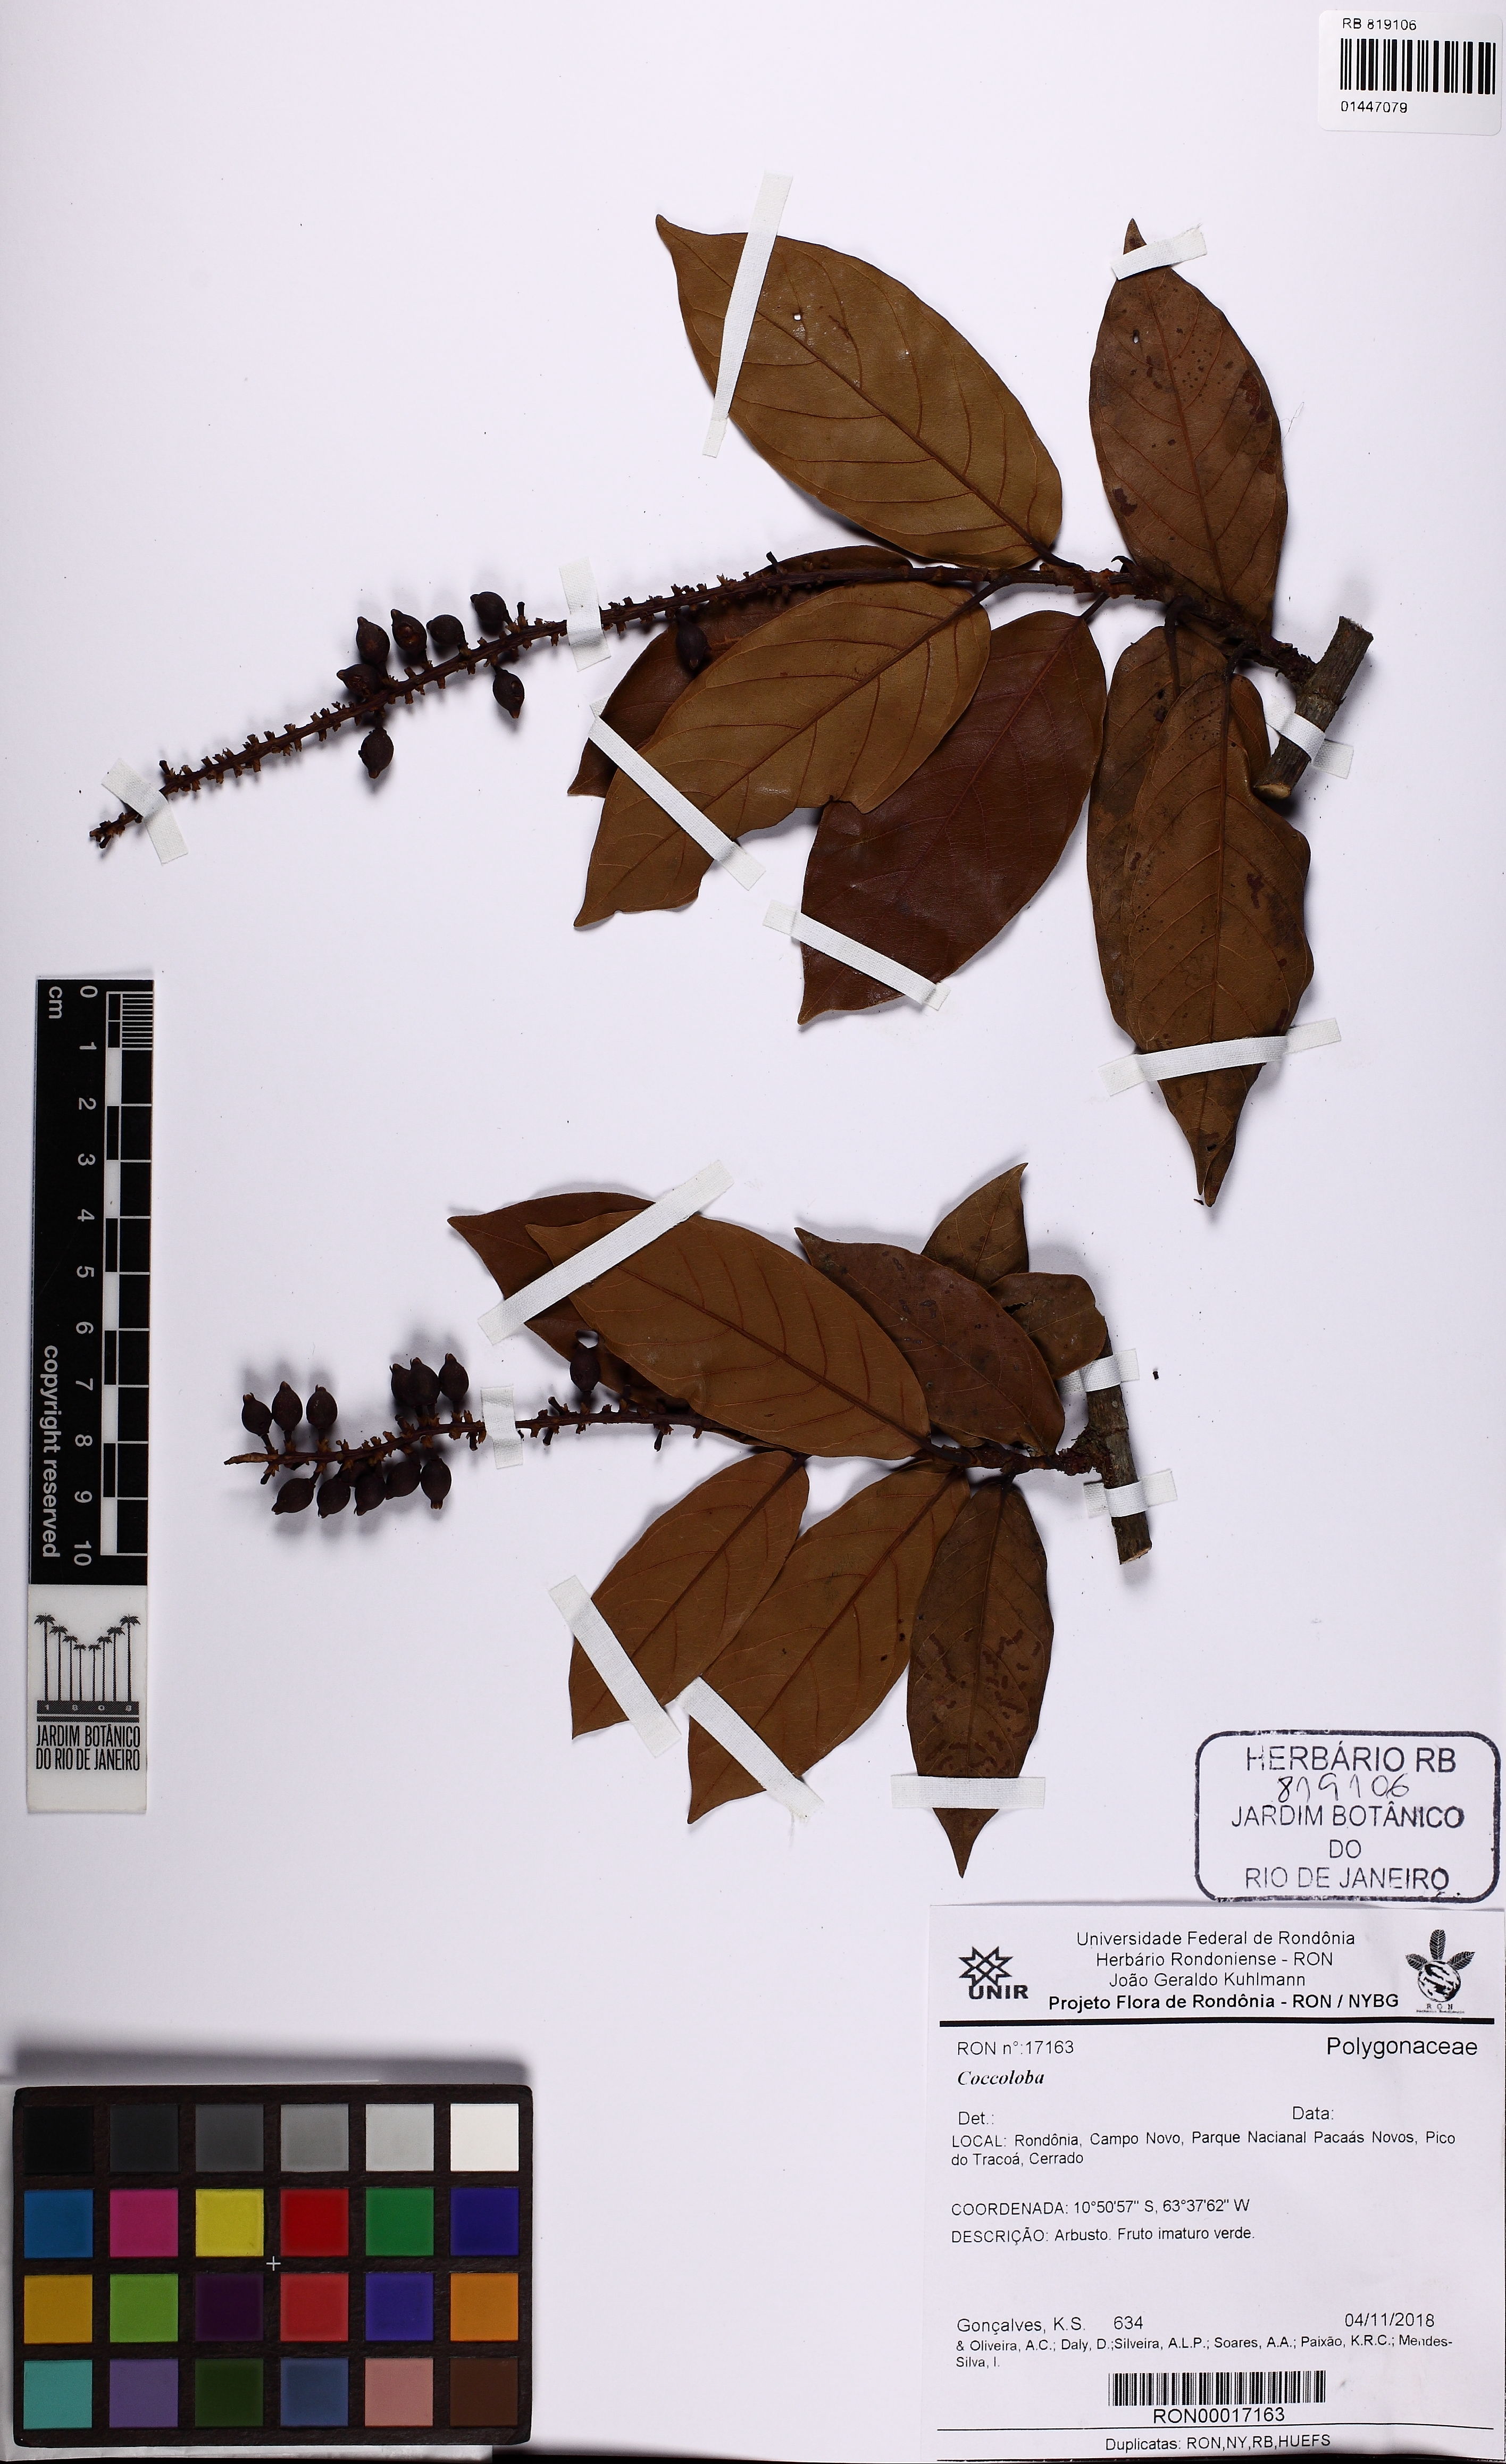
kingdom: Plantae
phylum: Tracheophyta
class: Magnoliopsida
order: Caryophyllales
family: Polygonaceae
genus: Coccoloba
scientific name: Coccoloba
